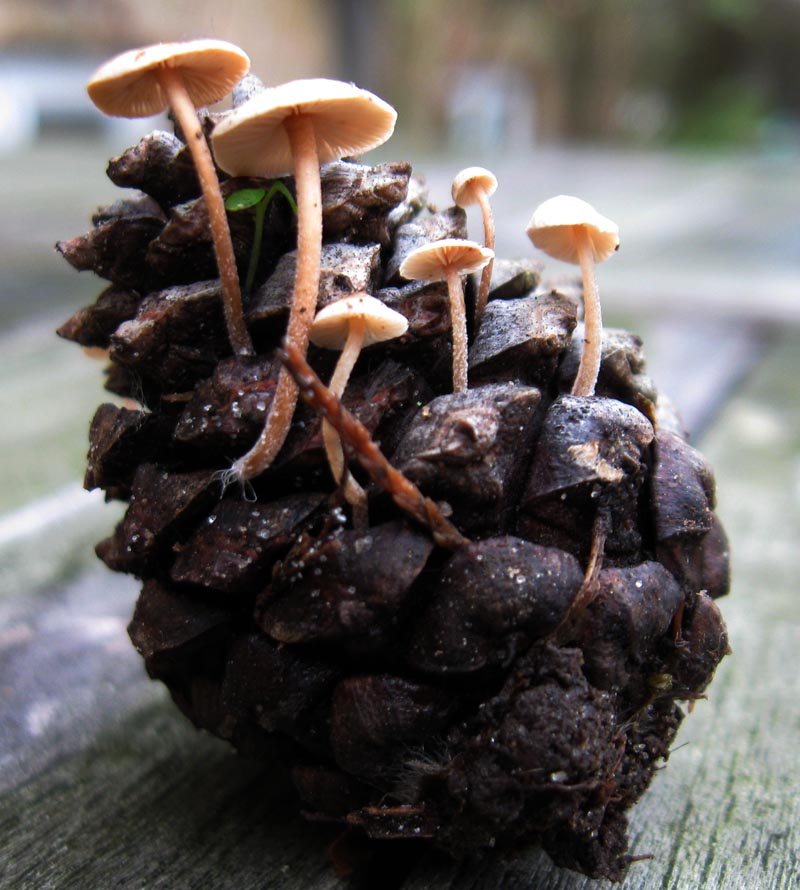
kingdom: Fungi
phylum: Basidiomycota
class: Agaricomycetes
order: Agaricales
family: Marasmiaceae
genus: Baeospora
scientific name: Baeospora myosura
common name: koglebruskhat
